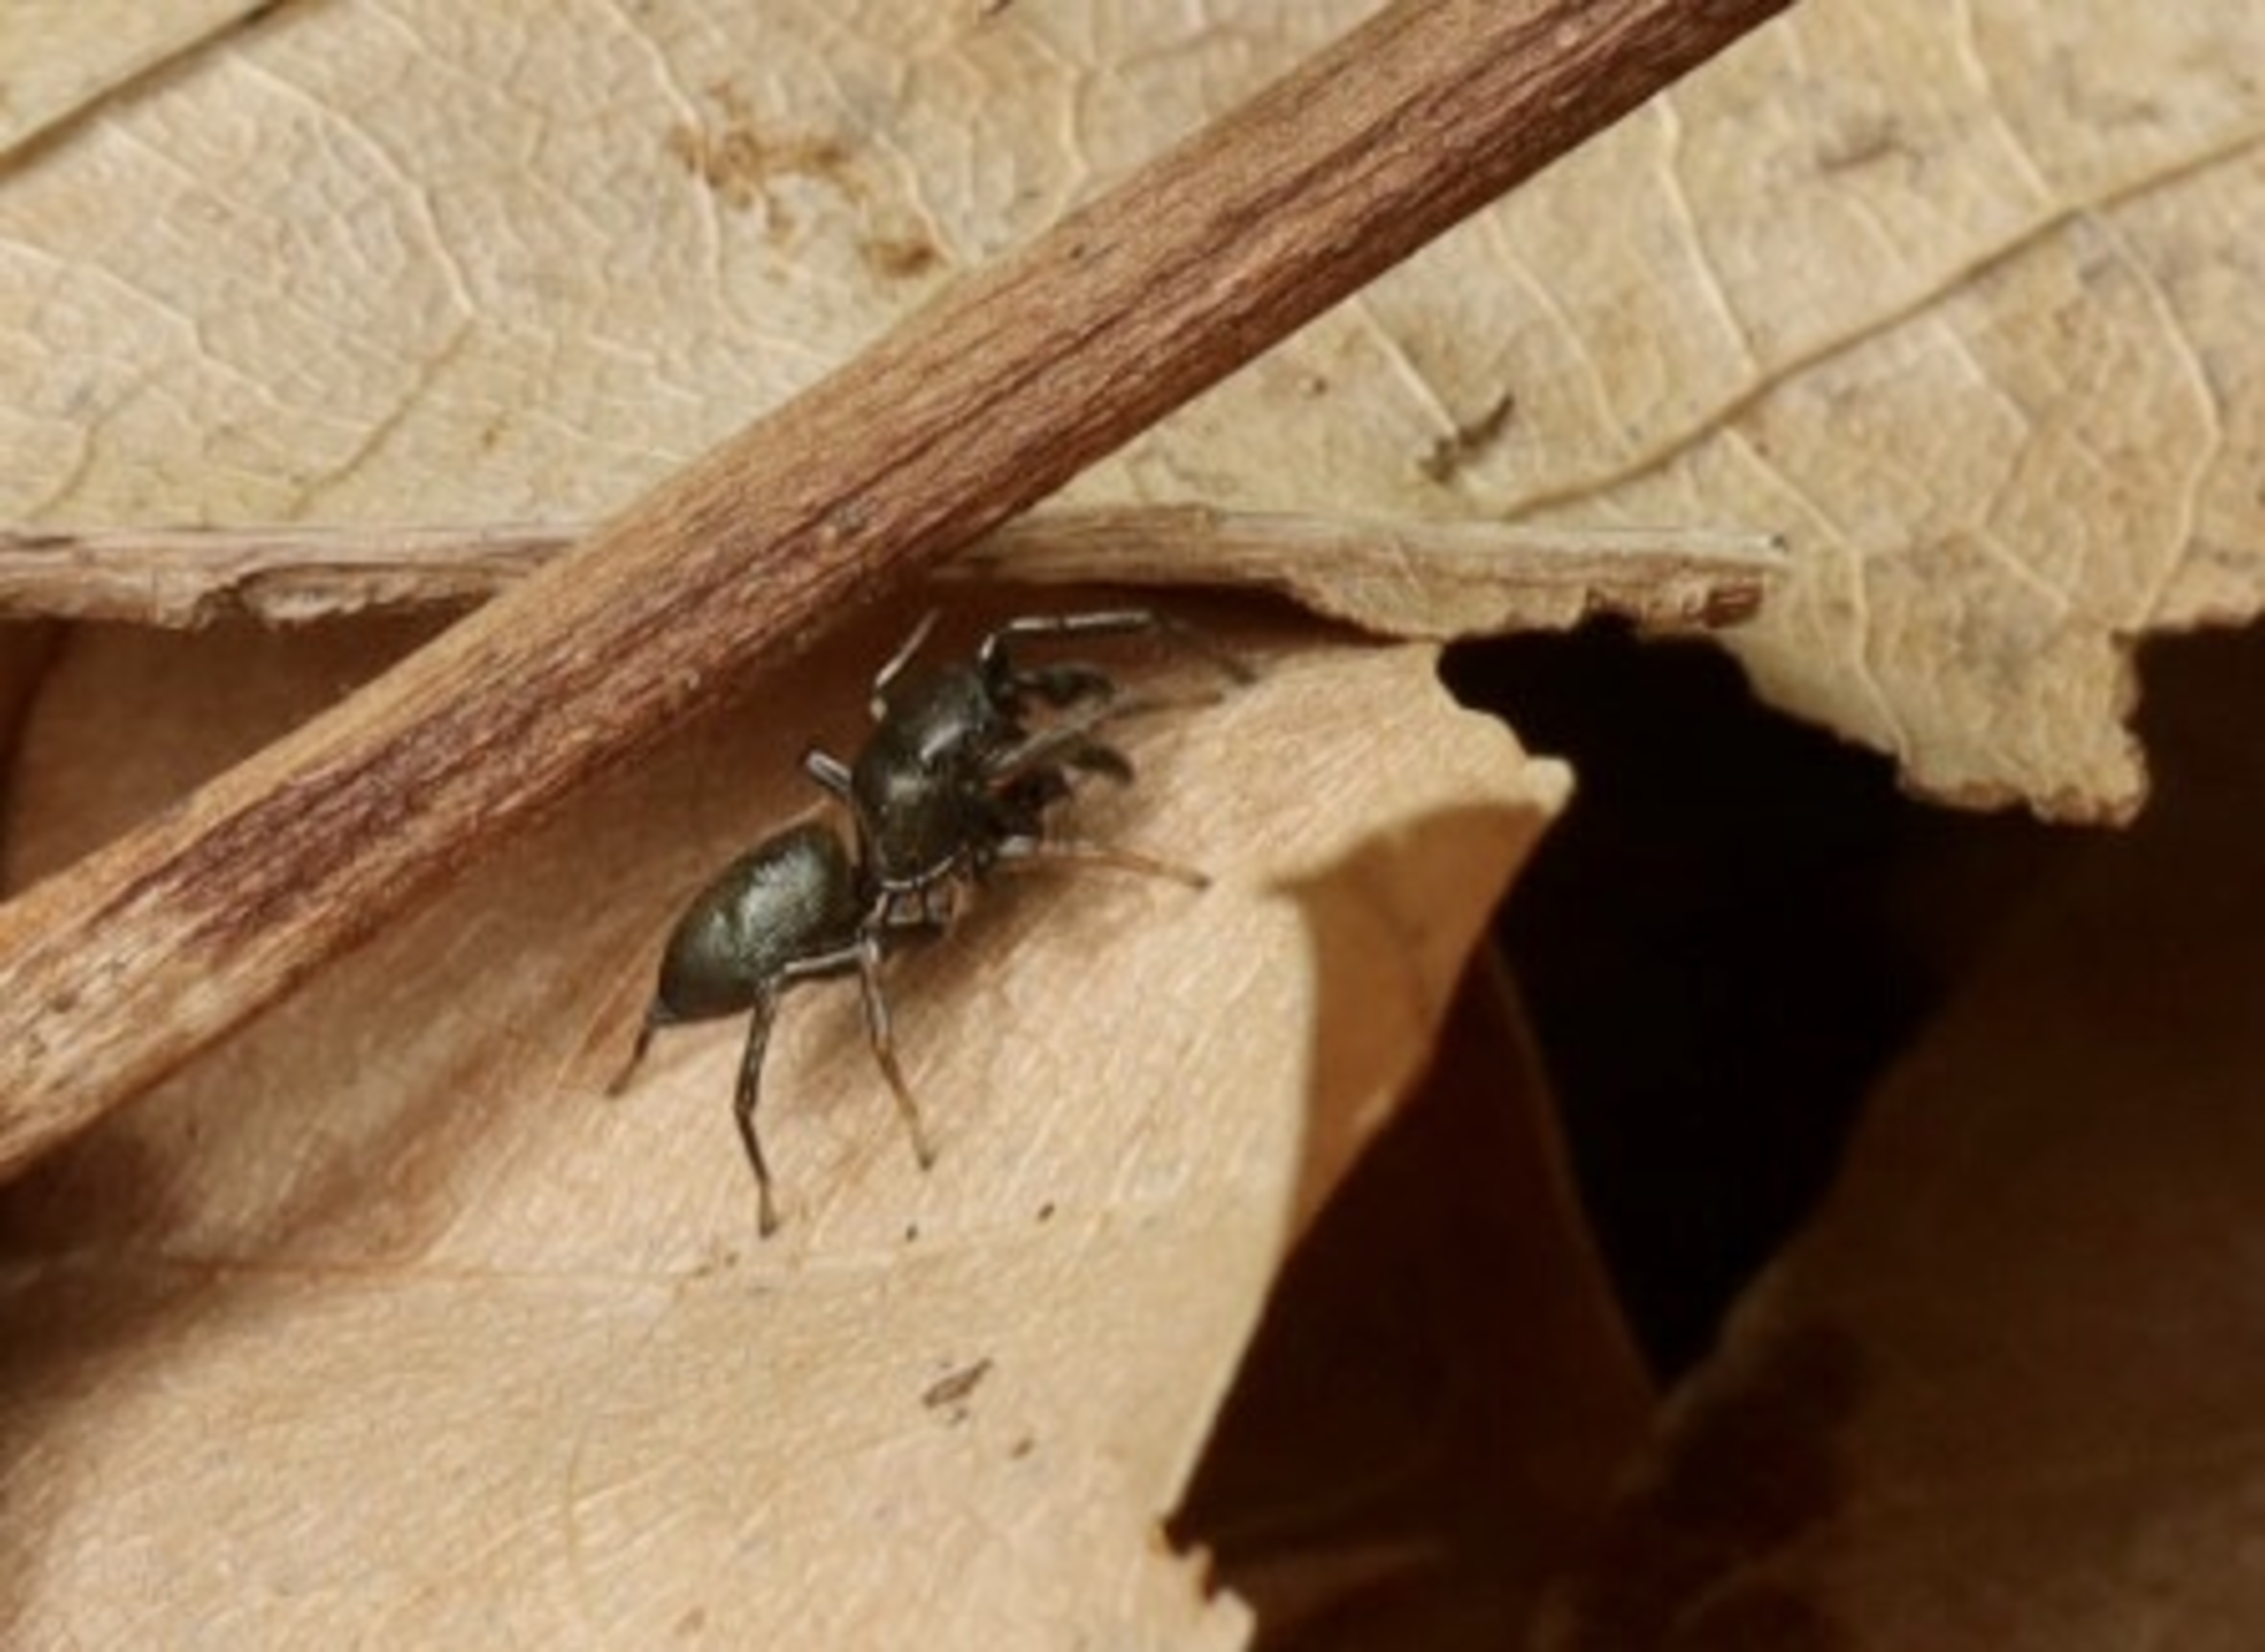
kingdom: Animalia
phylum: Arthropoda
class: Arachnida
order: Araneae
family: Salticidae
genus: Heliophanus
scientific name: Heliophanus
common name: Sortspringerslægten
